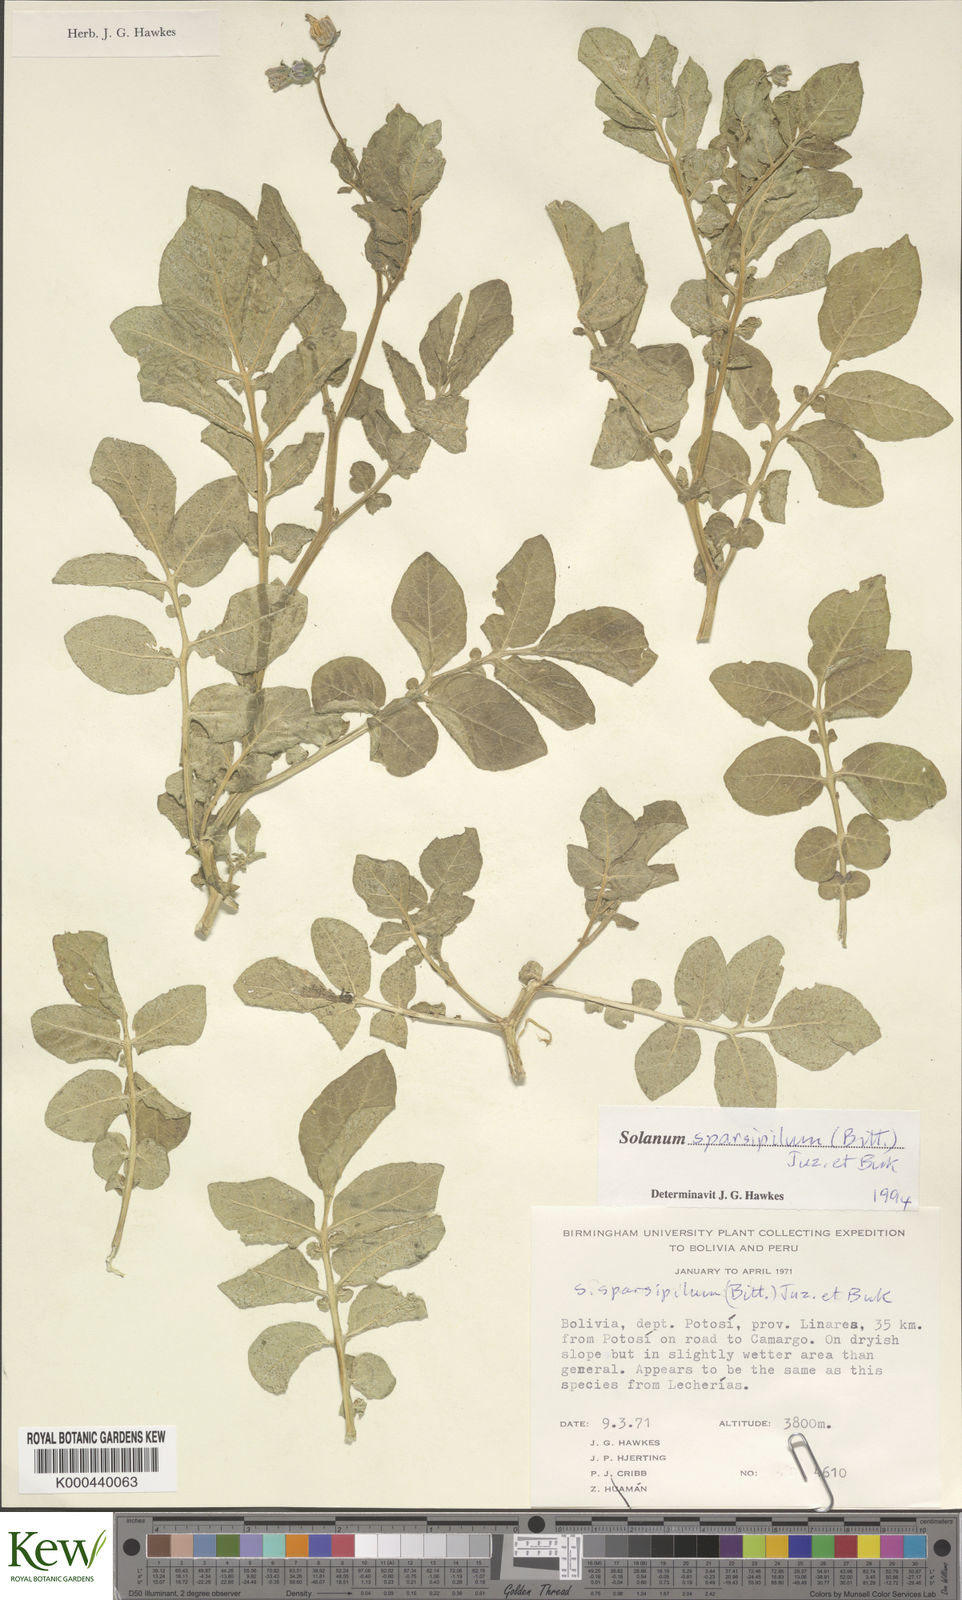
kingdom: Plantae
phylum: Tracheophyta
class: Magnoliopsida
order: Solanales
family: Solanaceae
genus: Solanum
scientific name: Solanum brevicaule
